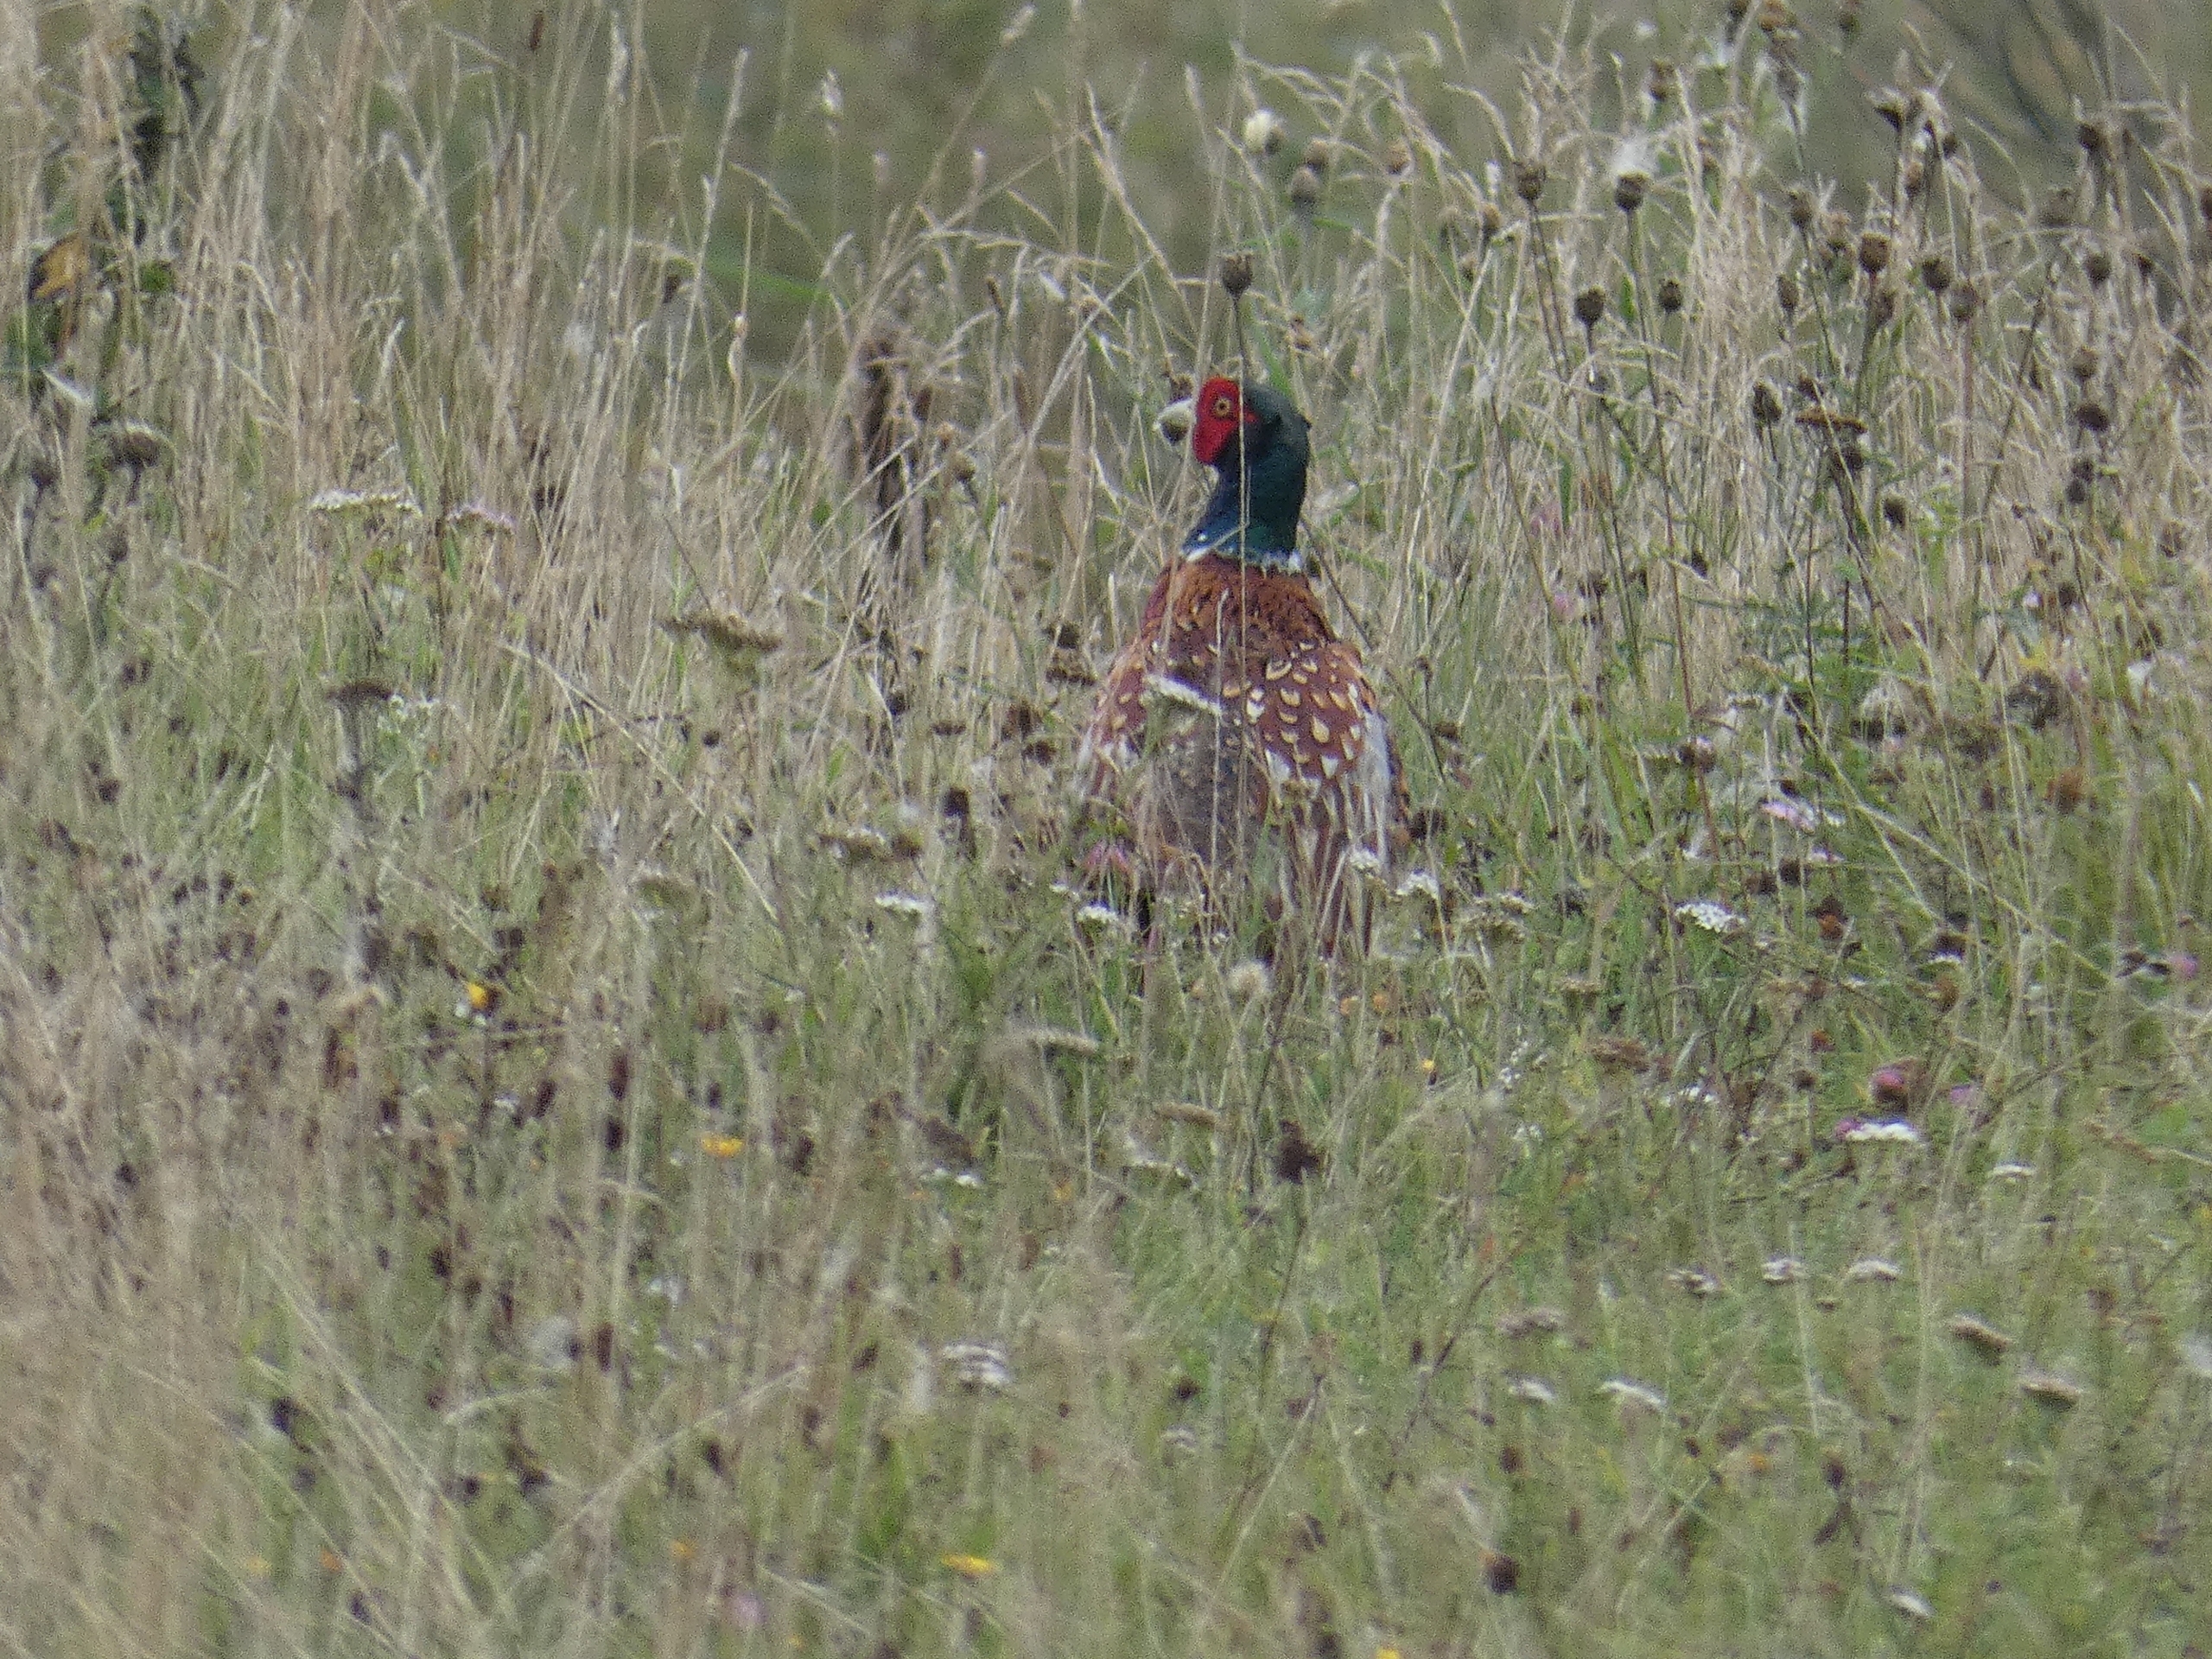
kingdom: Animalia
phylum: Chordata
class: Aves
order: Galliformes
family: Phasianidae
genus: Phasianus
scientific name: Phasianus colchicus
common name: Fasan
